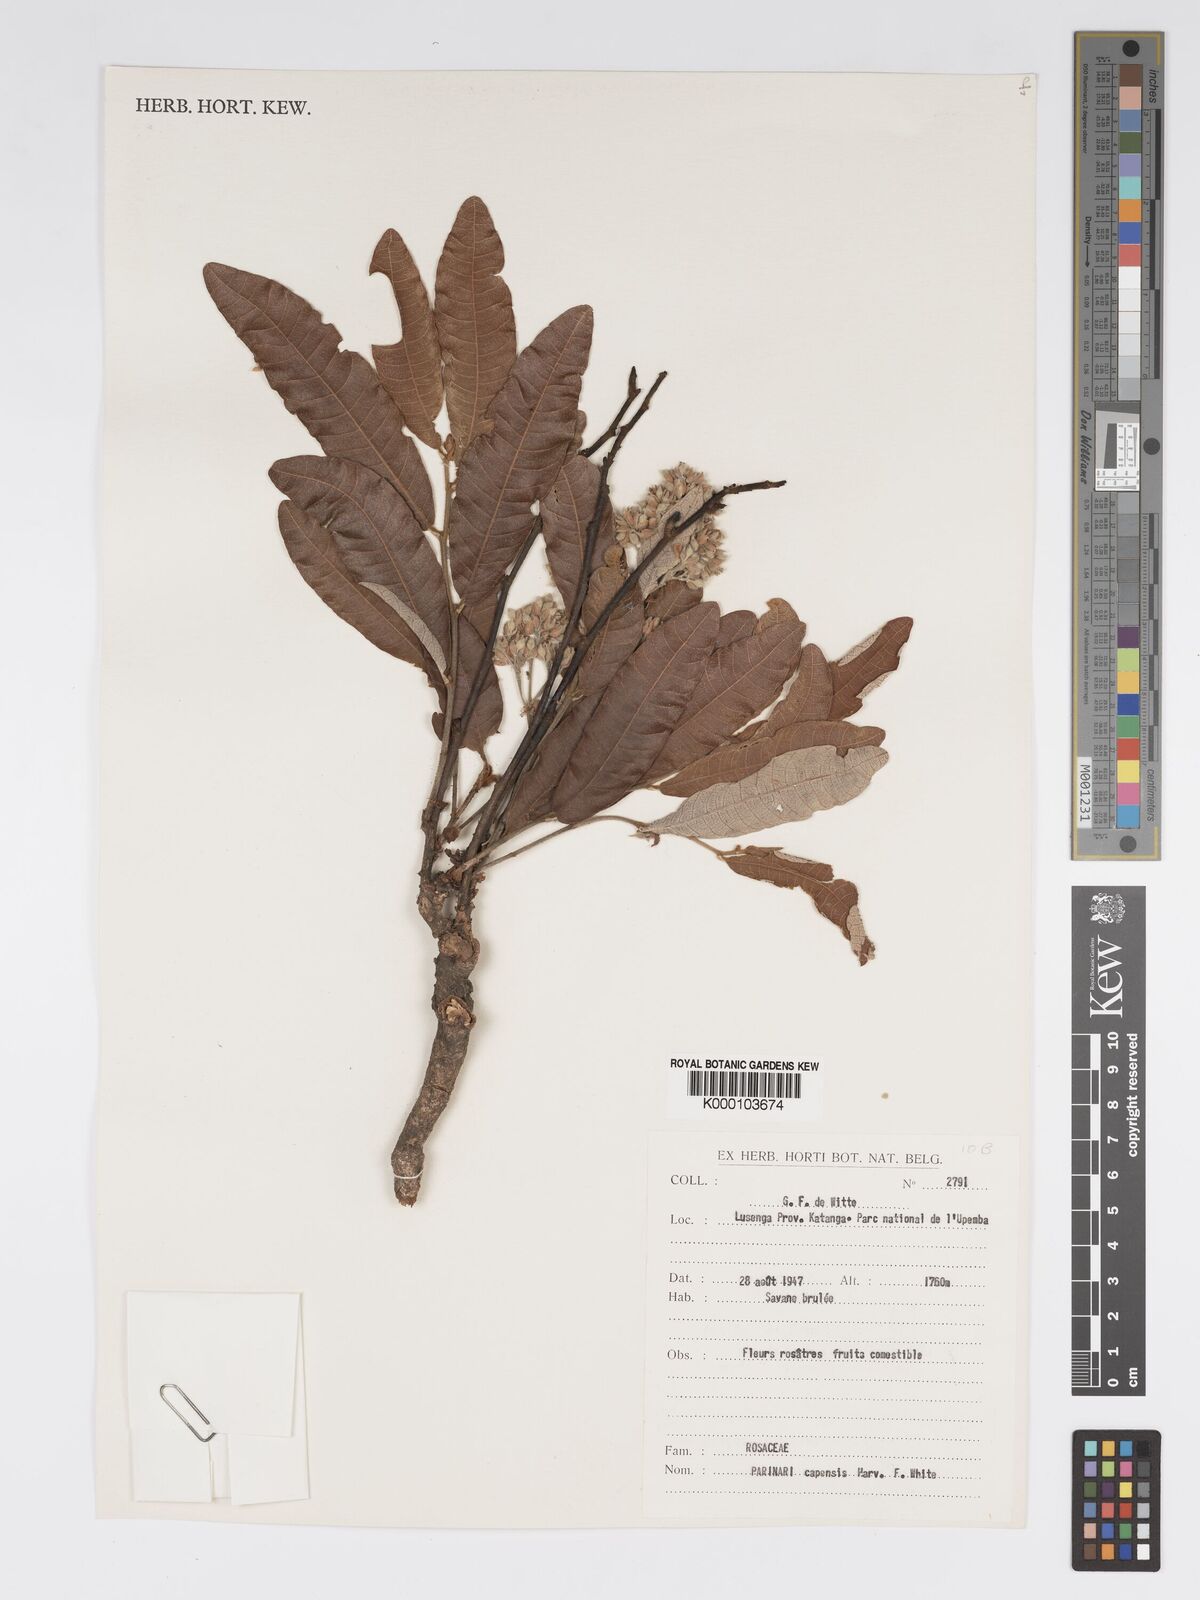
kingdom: Plantae
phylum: Tracheophyta
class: Magnoliopsida
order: Malpighiales
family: Chrysobalanaceae
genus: Parinari
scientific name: Parinari capensis
